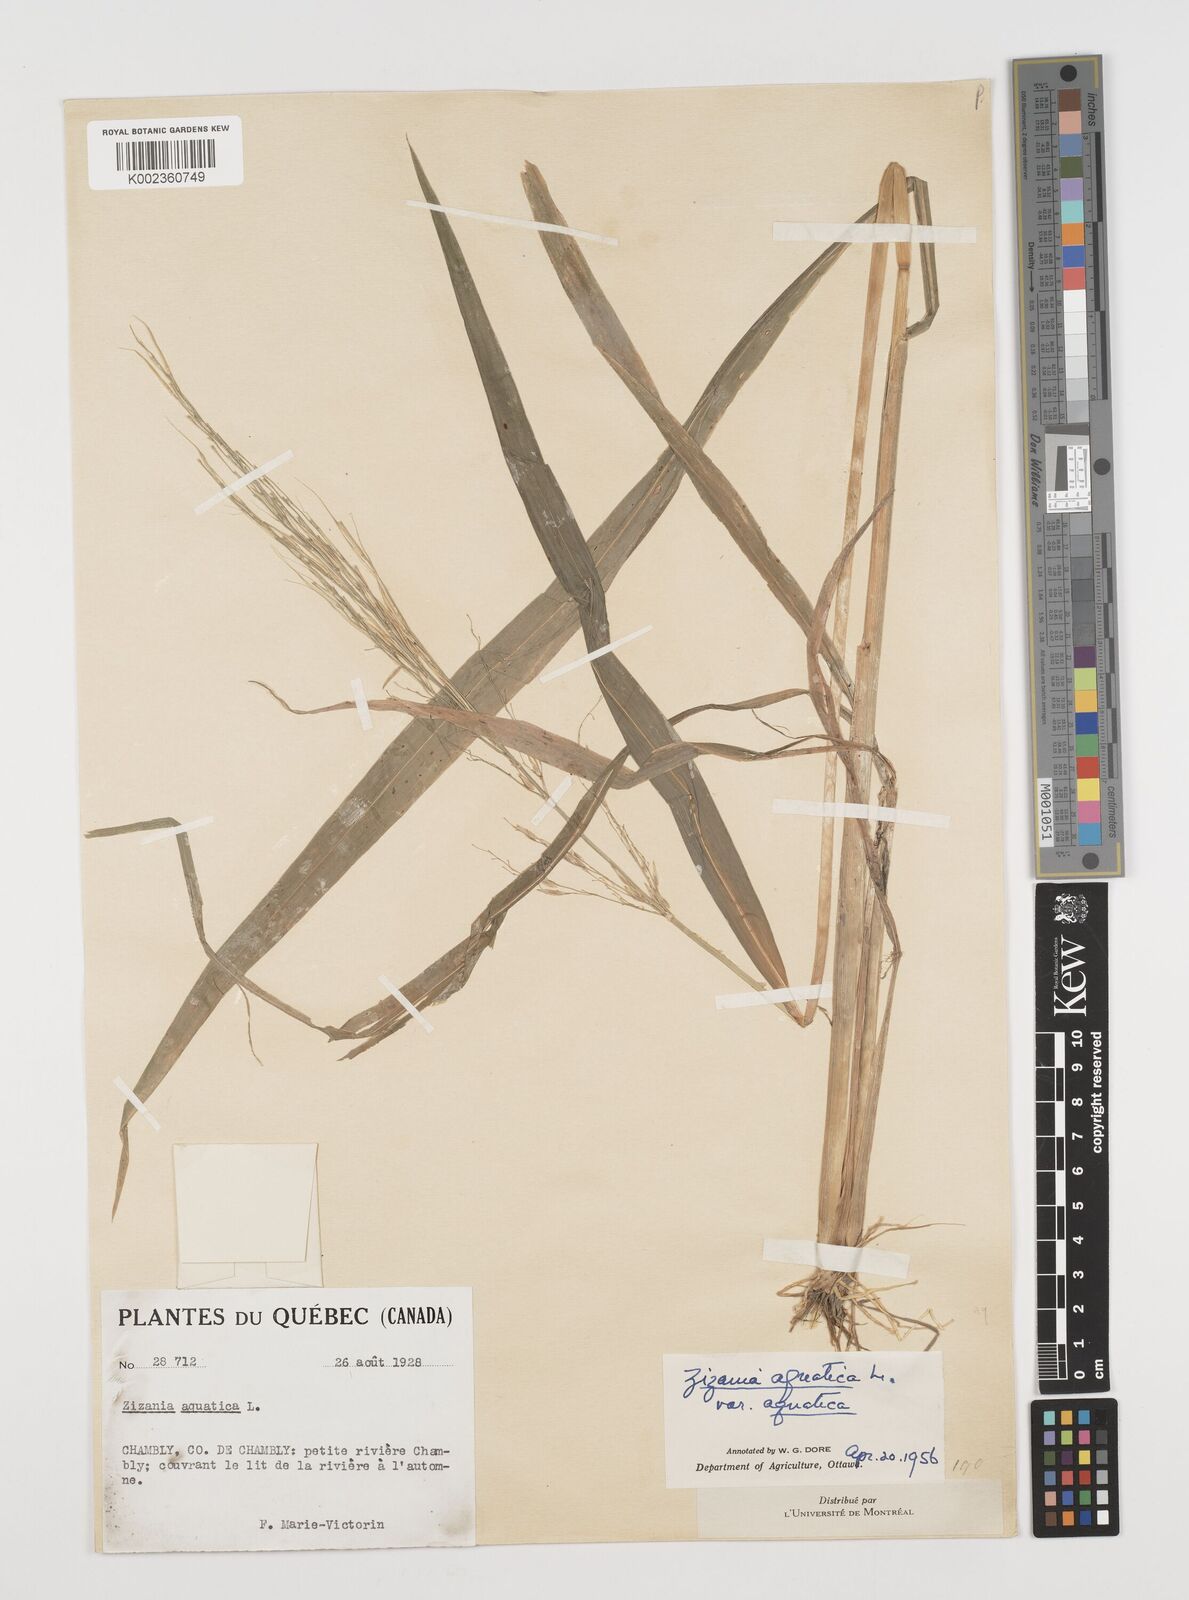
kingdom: Plantae
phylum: Tracheophyta
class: Liliopsida
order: Poales
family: Poaceae
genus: Zizania
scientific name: Zizania aquatica
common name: Annual wildrice
